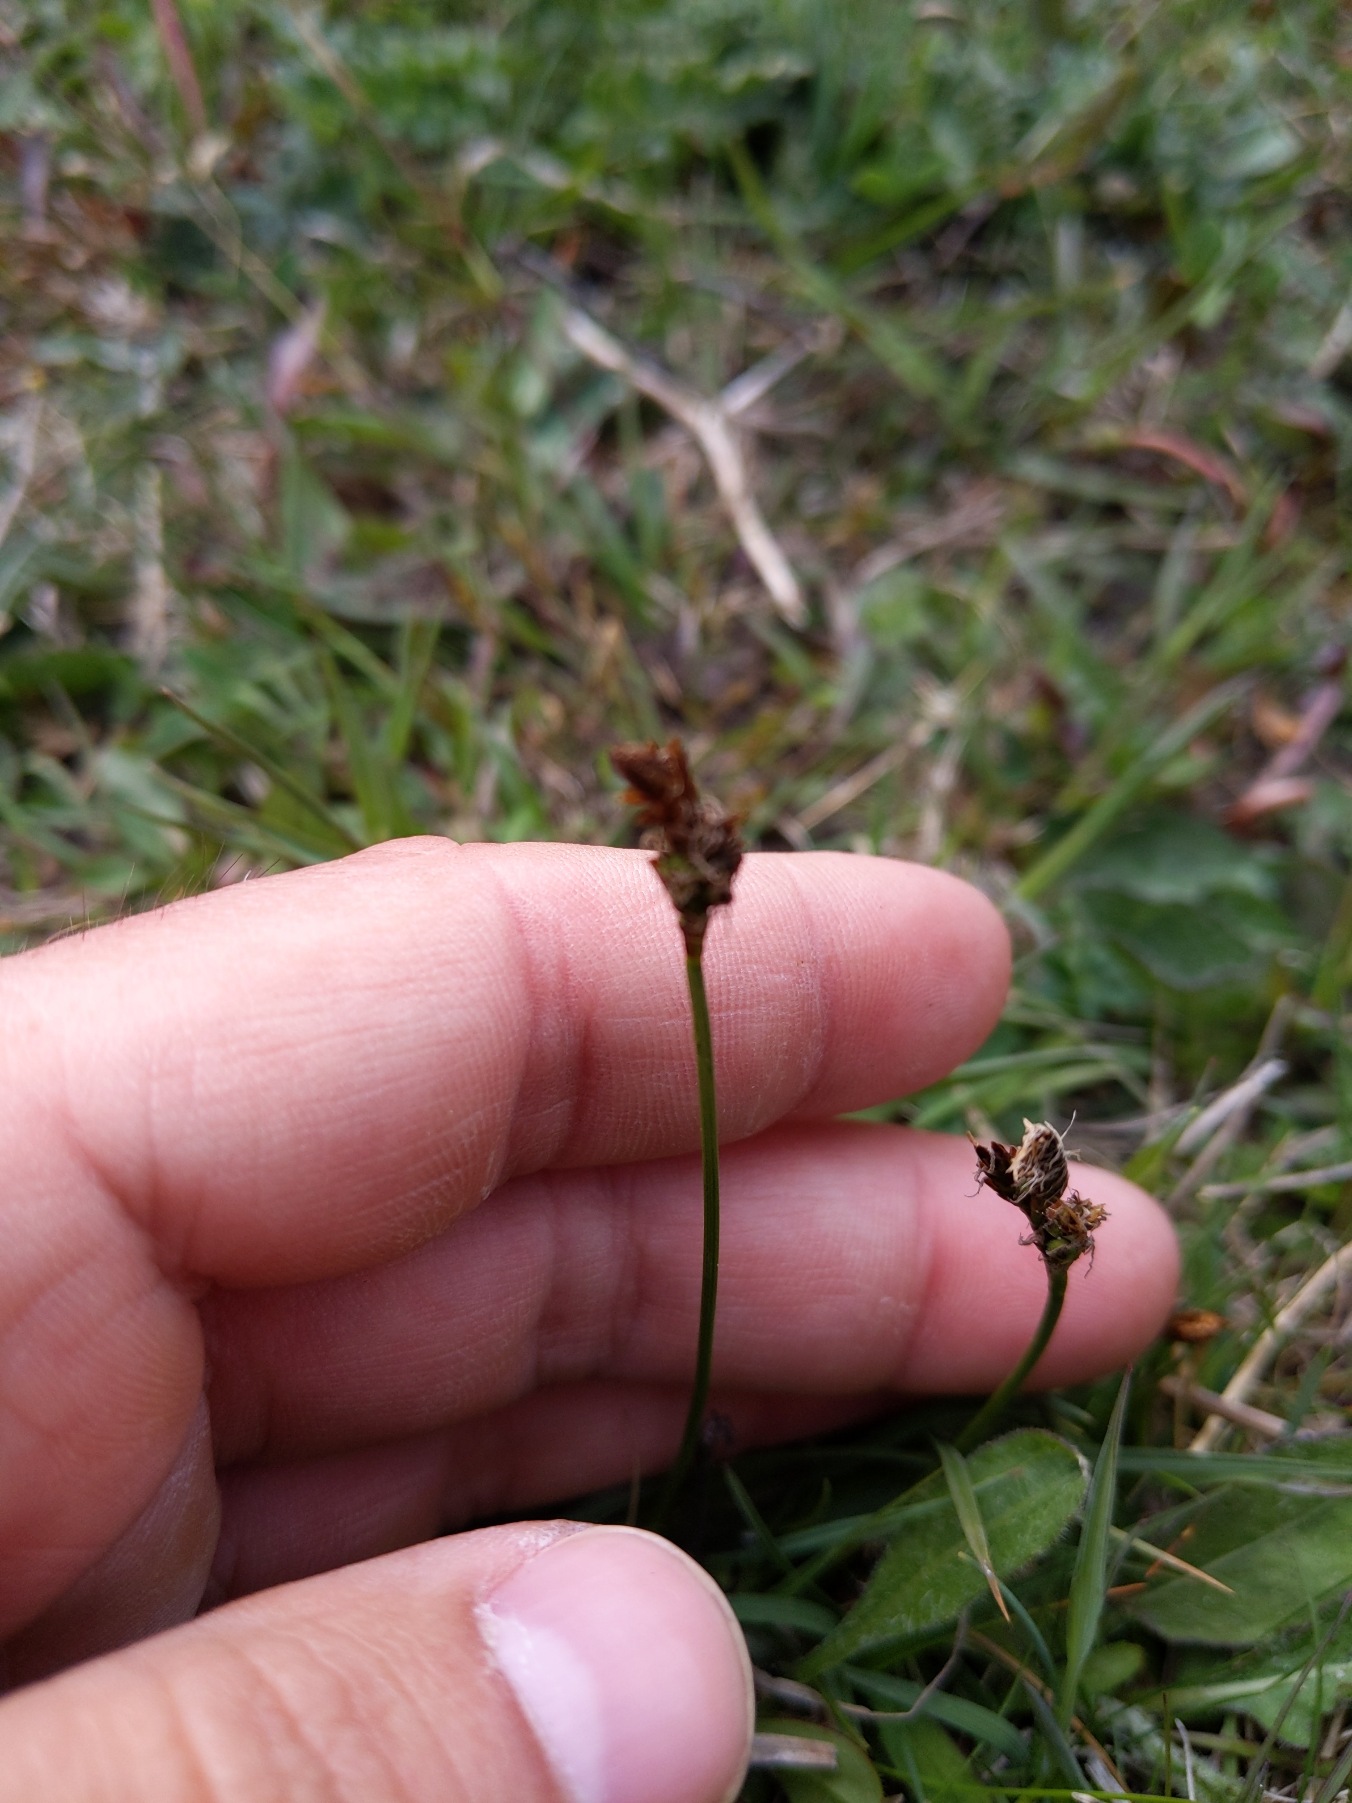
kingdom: Plantae
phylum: Tracheophyta
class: Liliopsida
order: Poales
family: Cyperaceae
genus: Carex
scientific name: Carex caryophyllea
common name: Vår-star
